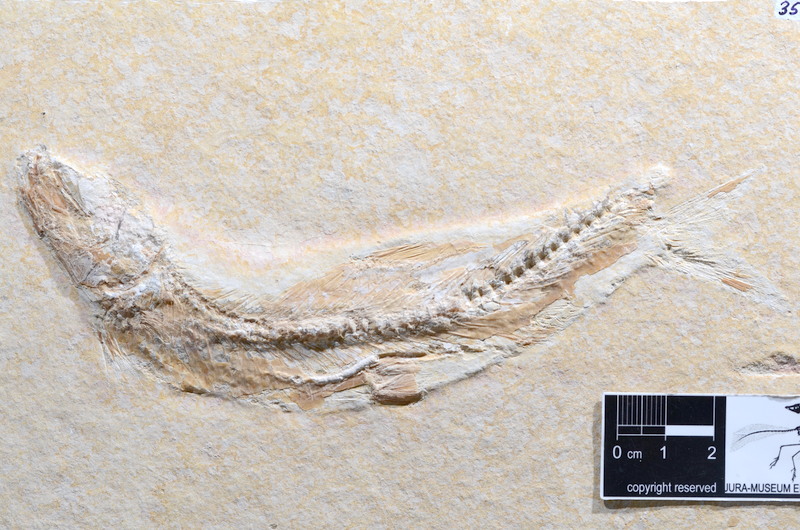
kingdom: Animalia
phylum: Chordata
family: Ascalaboidae
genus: Tharsis
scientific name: Tharsis dubius
